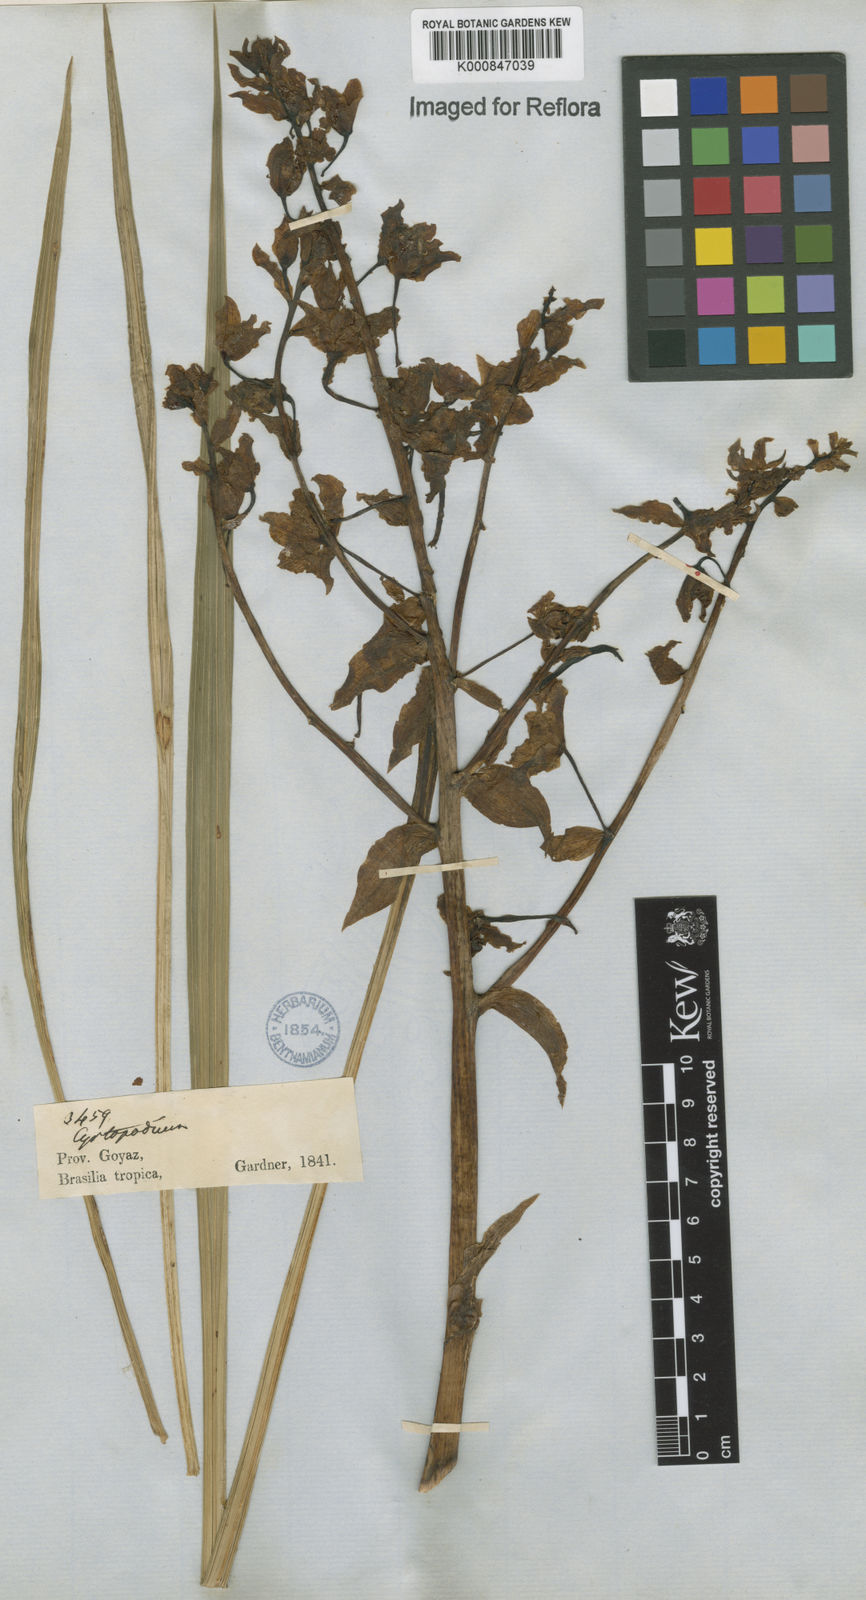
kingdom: Plantae
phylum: Tracheophyta
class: Liliopsida
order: Asparagales
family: Orchidaceae
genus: Cyrtopodium
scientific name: Cyrtopodium punctatum
